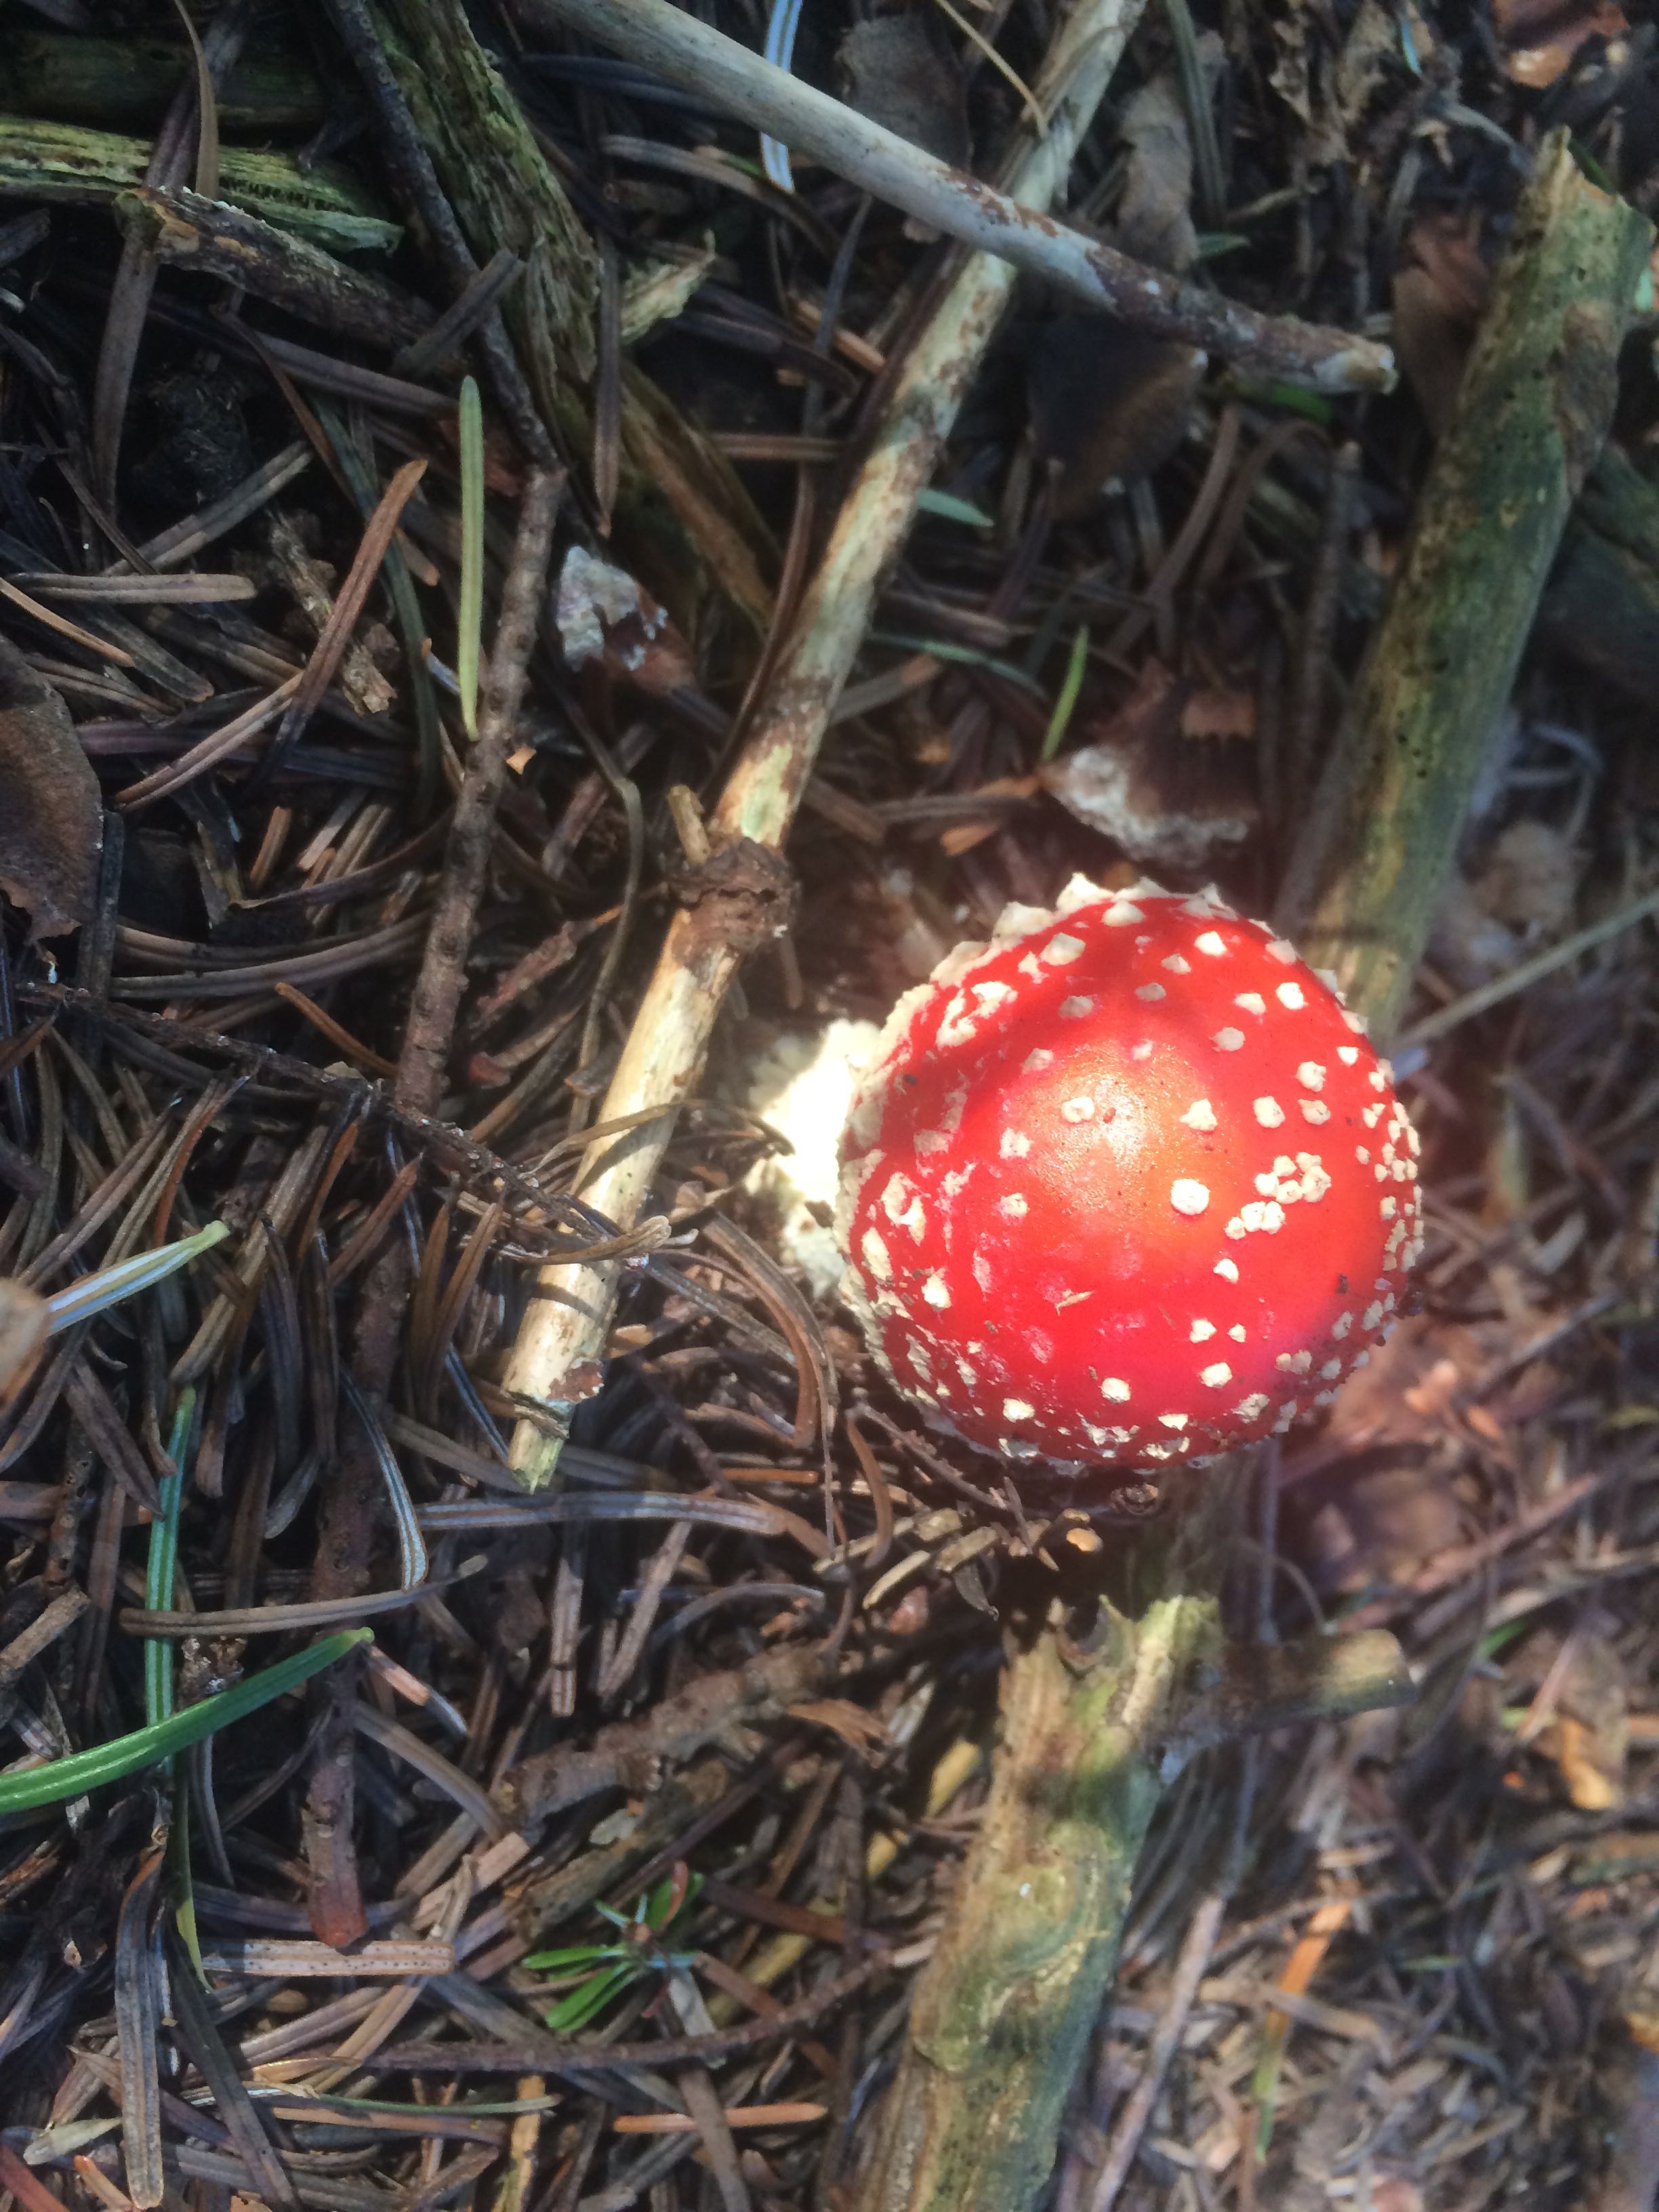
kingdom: Fungi
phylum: Basidiomycota
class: Agaricomycetes
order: Agaricales
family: Amanitaceae
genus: Amanita
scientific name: Amanita muscaria
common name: rød fluesvamp
